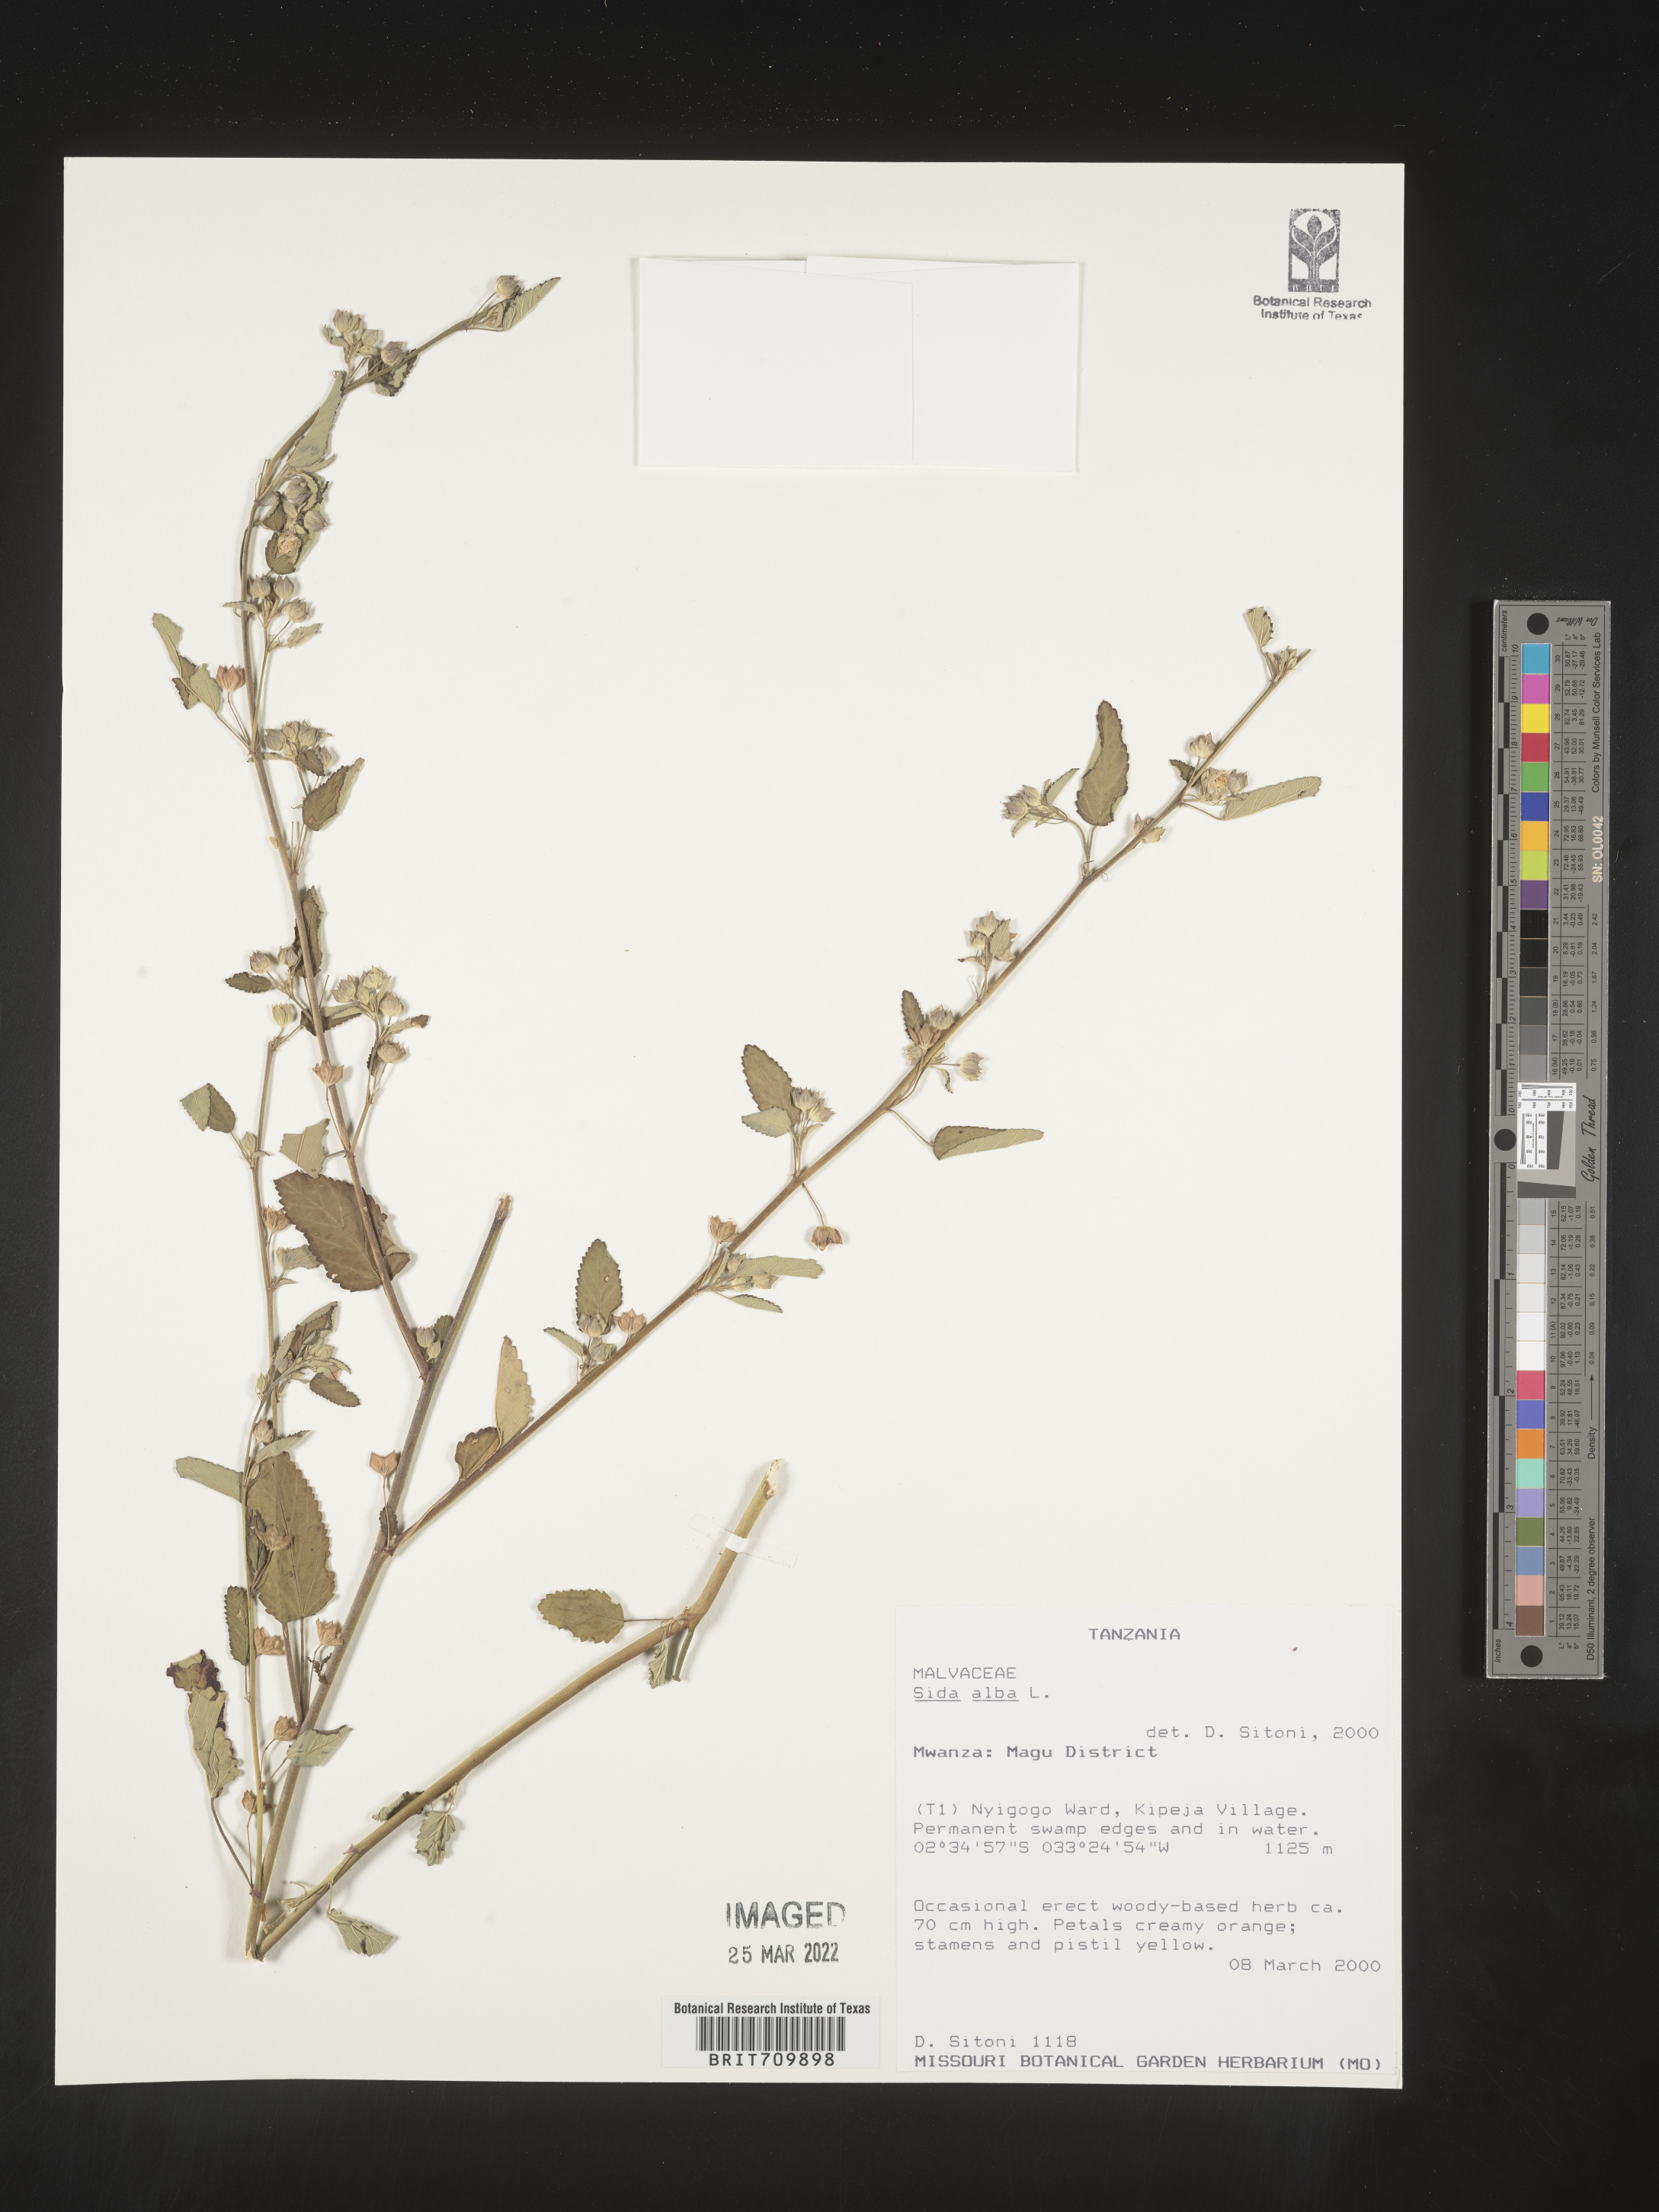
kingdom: Plantae
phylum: Tracheophyta
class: Magnoliopsida
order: Malvales
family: Malvaceae
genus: Sida
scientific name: Sida
